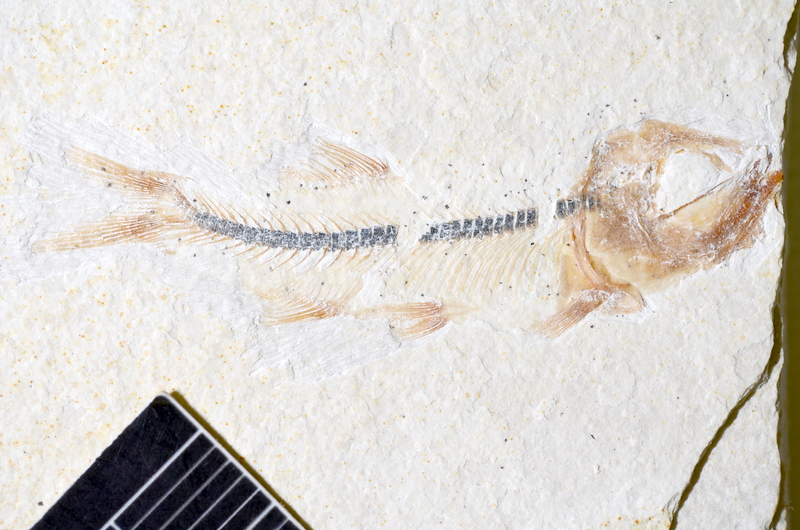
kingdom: Animalia
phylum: Chordata
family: Ascalaboidae
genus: Ebertichthys
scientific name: Ebertichthys ettlingensis
